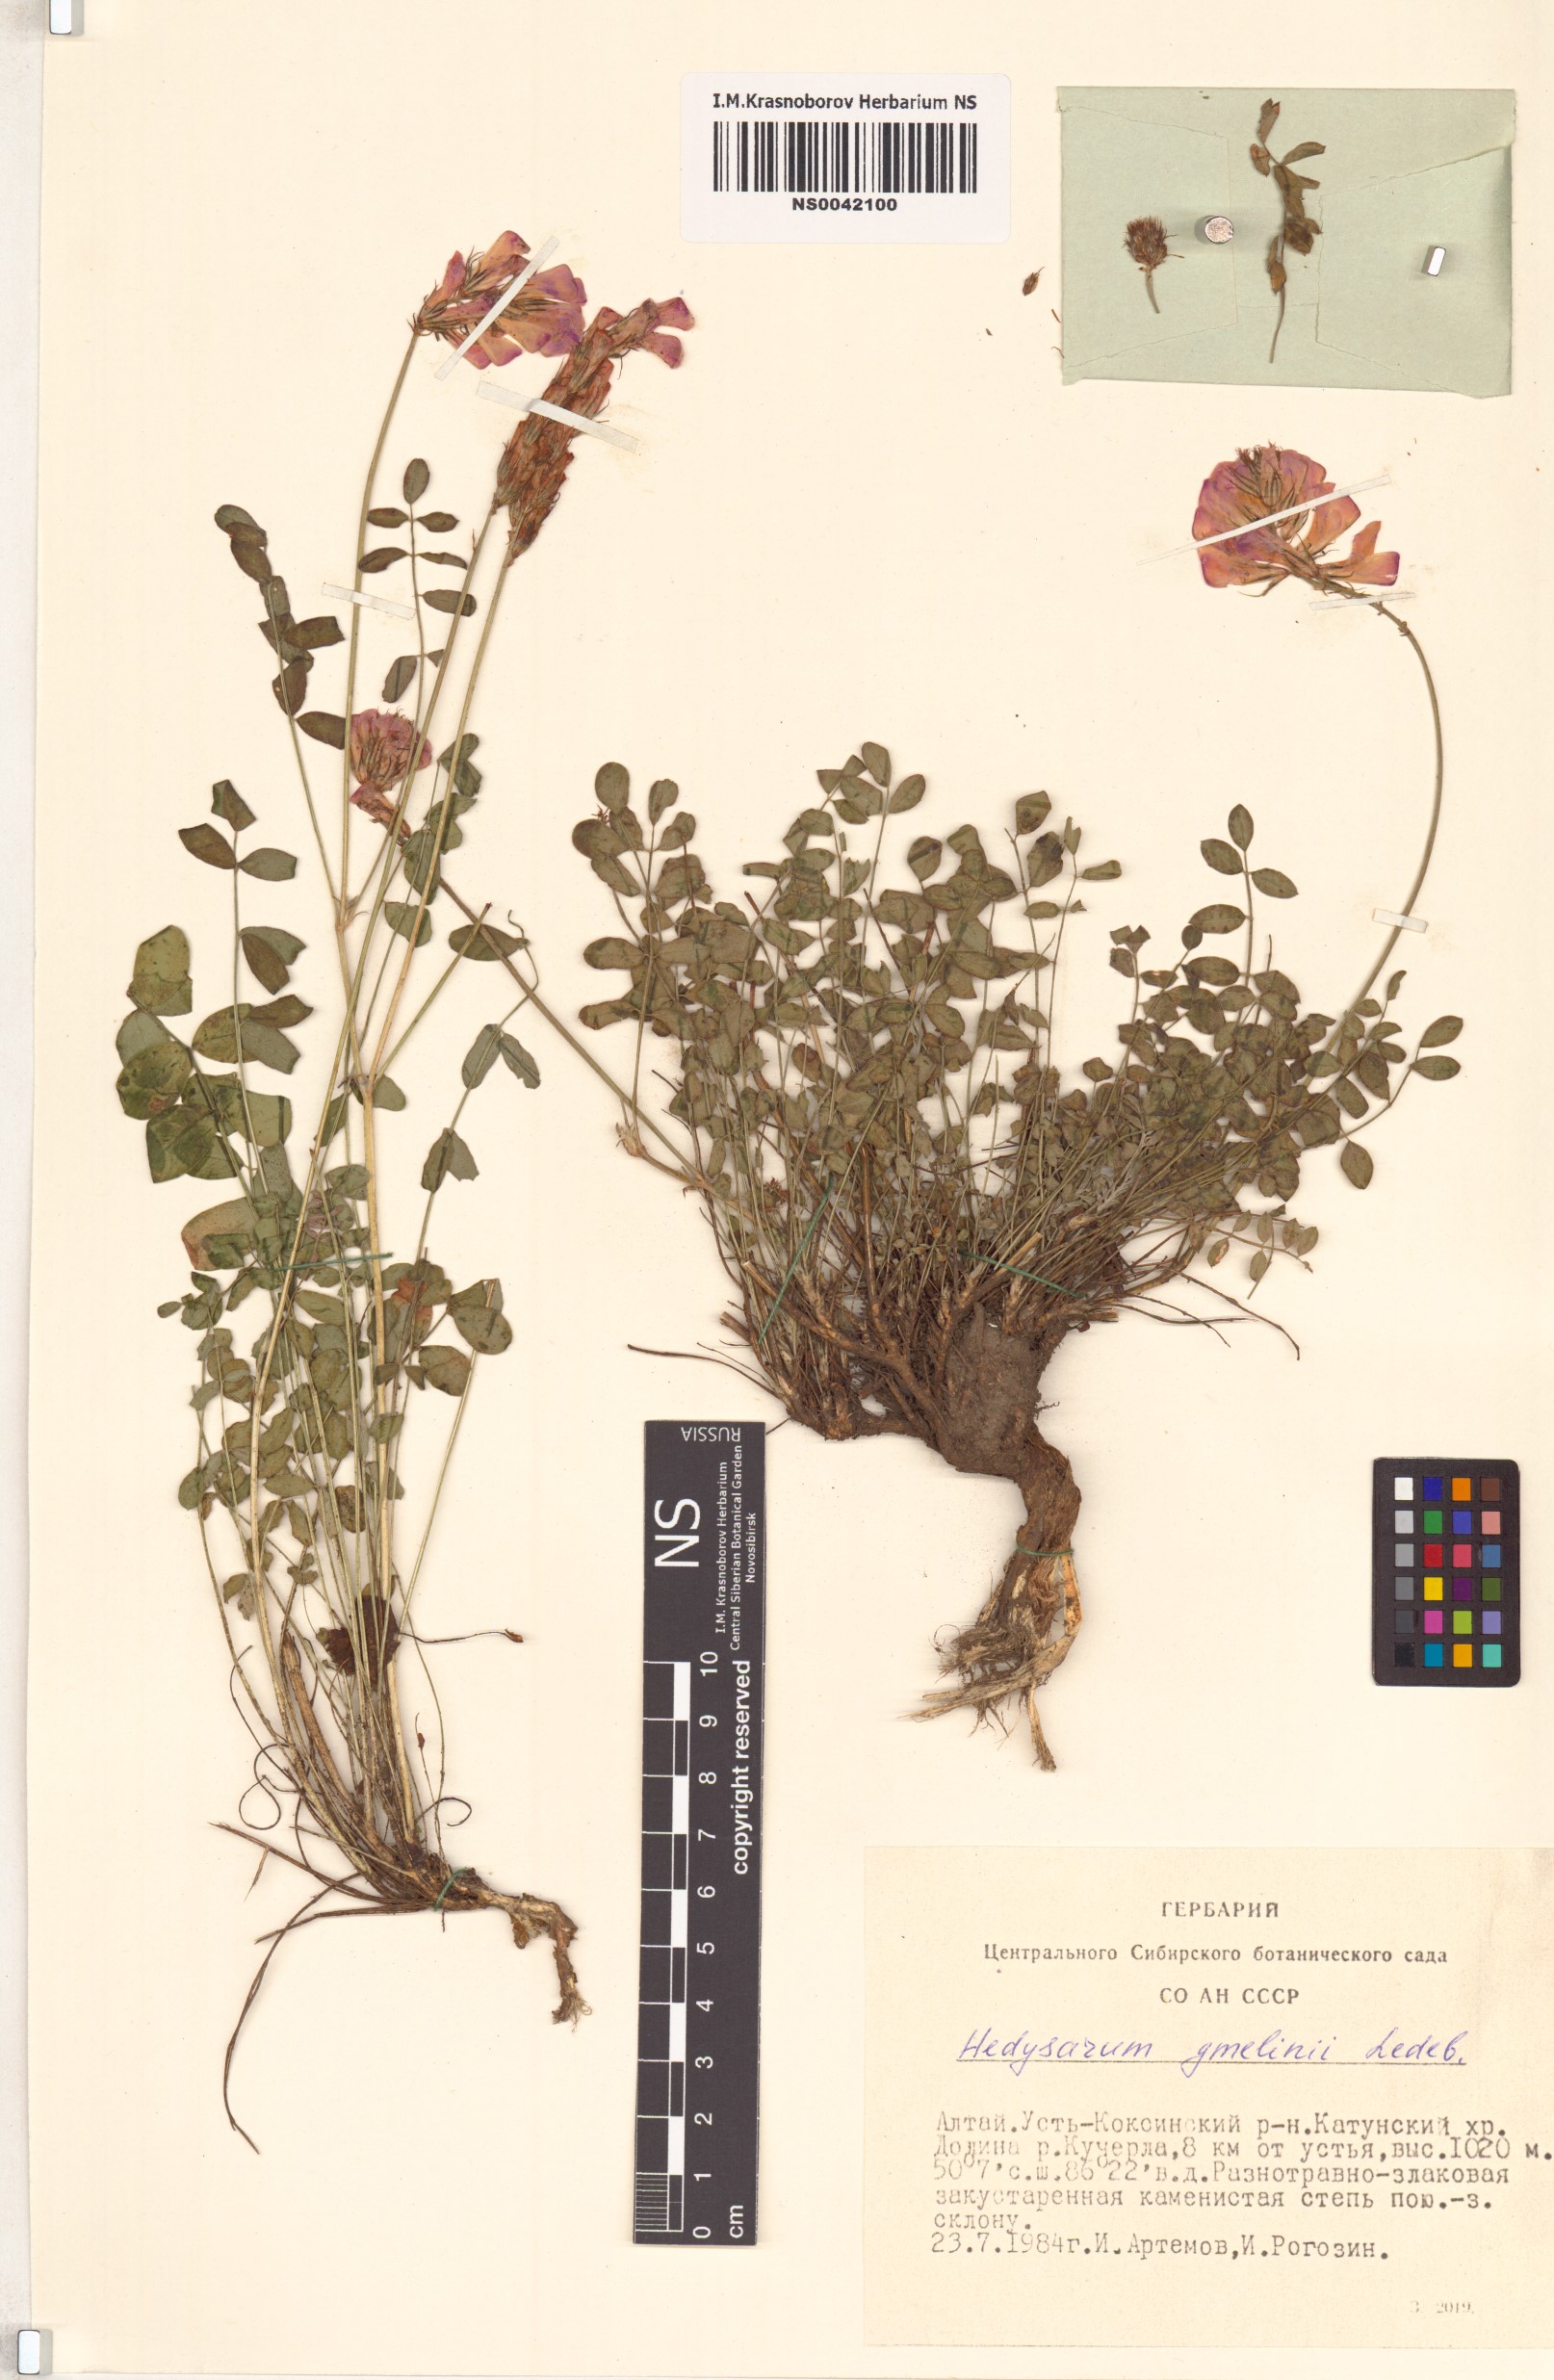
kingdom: Plantae
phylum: Tracheophyta
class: Magnoliopsida
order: Fabales
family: Fabaceae
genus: Hedysarum
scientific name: Hedysarum gmelinii
